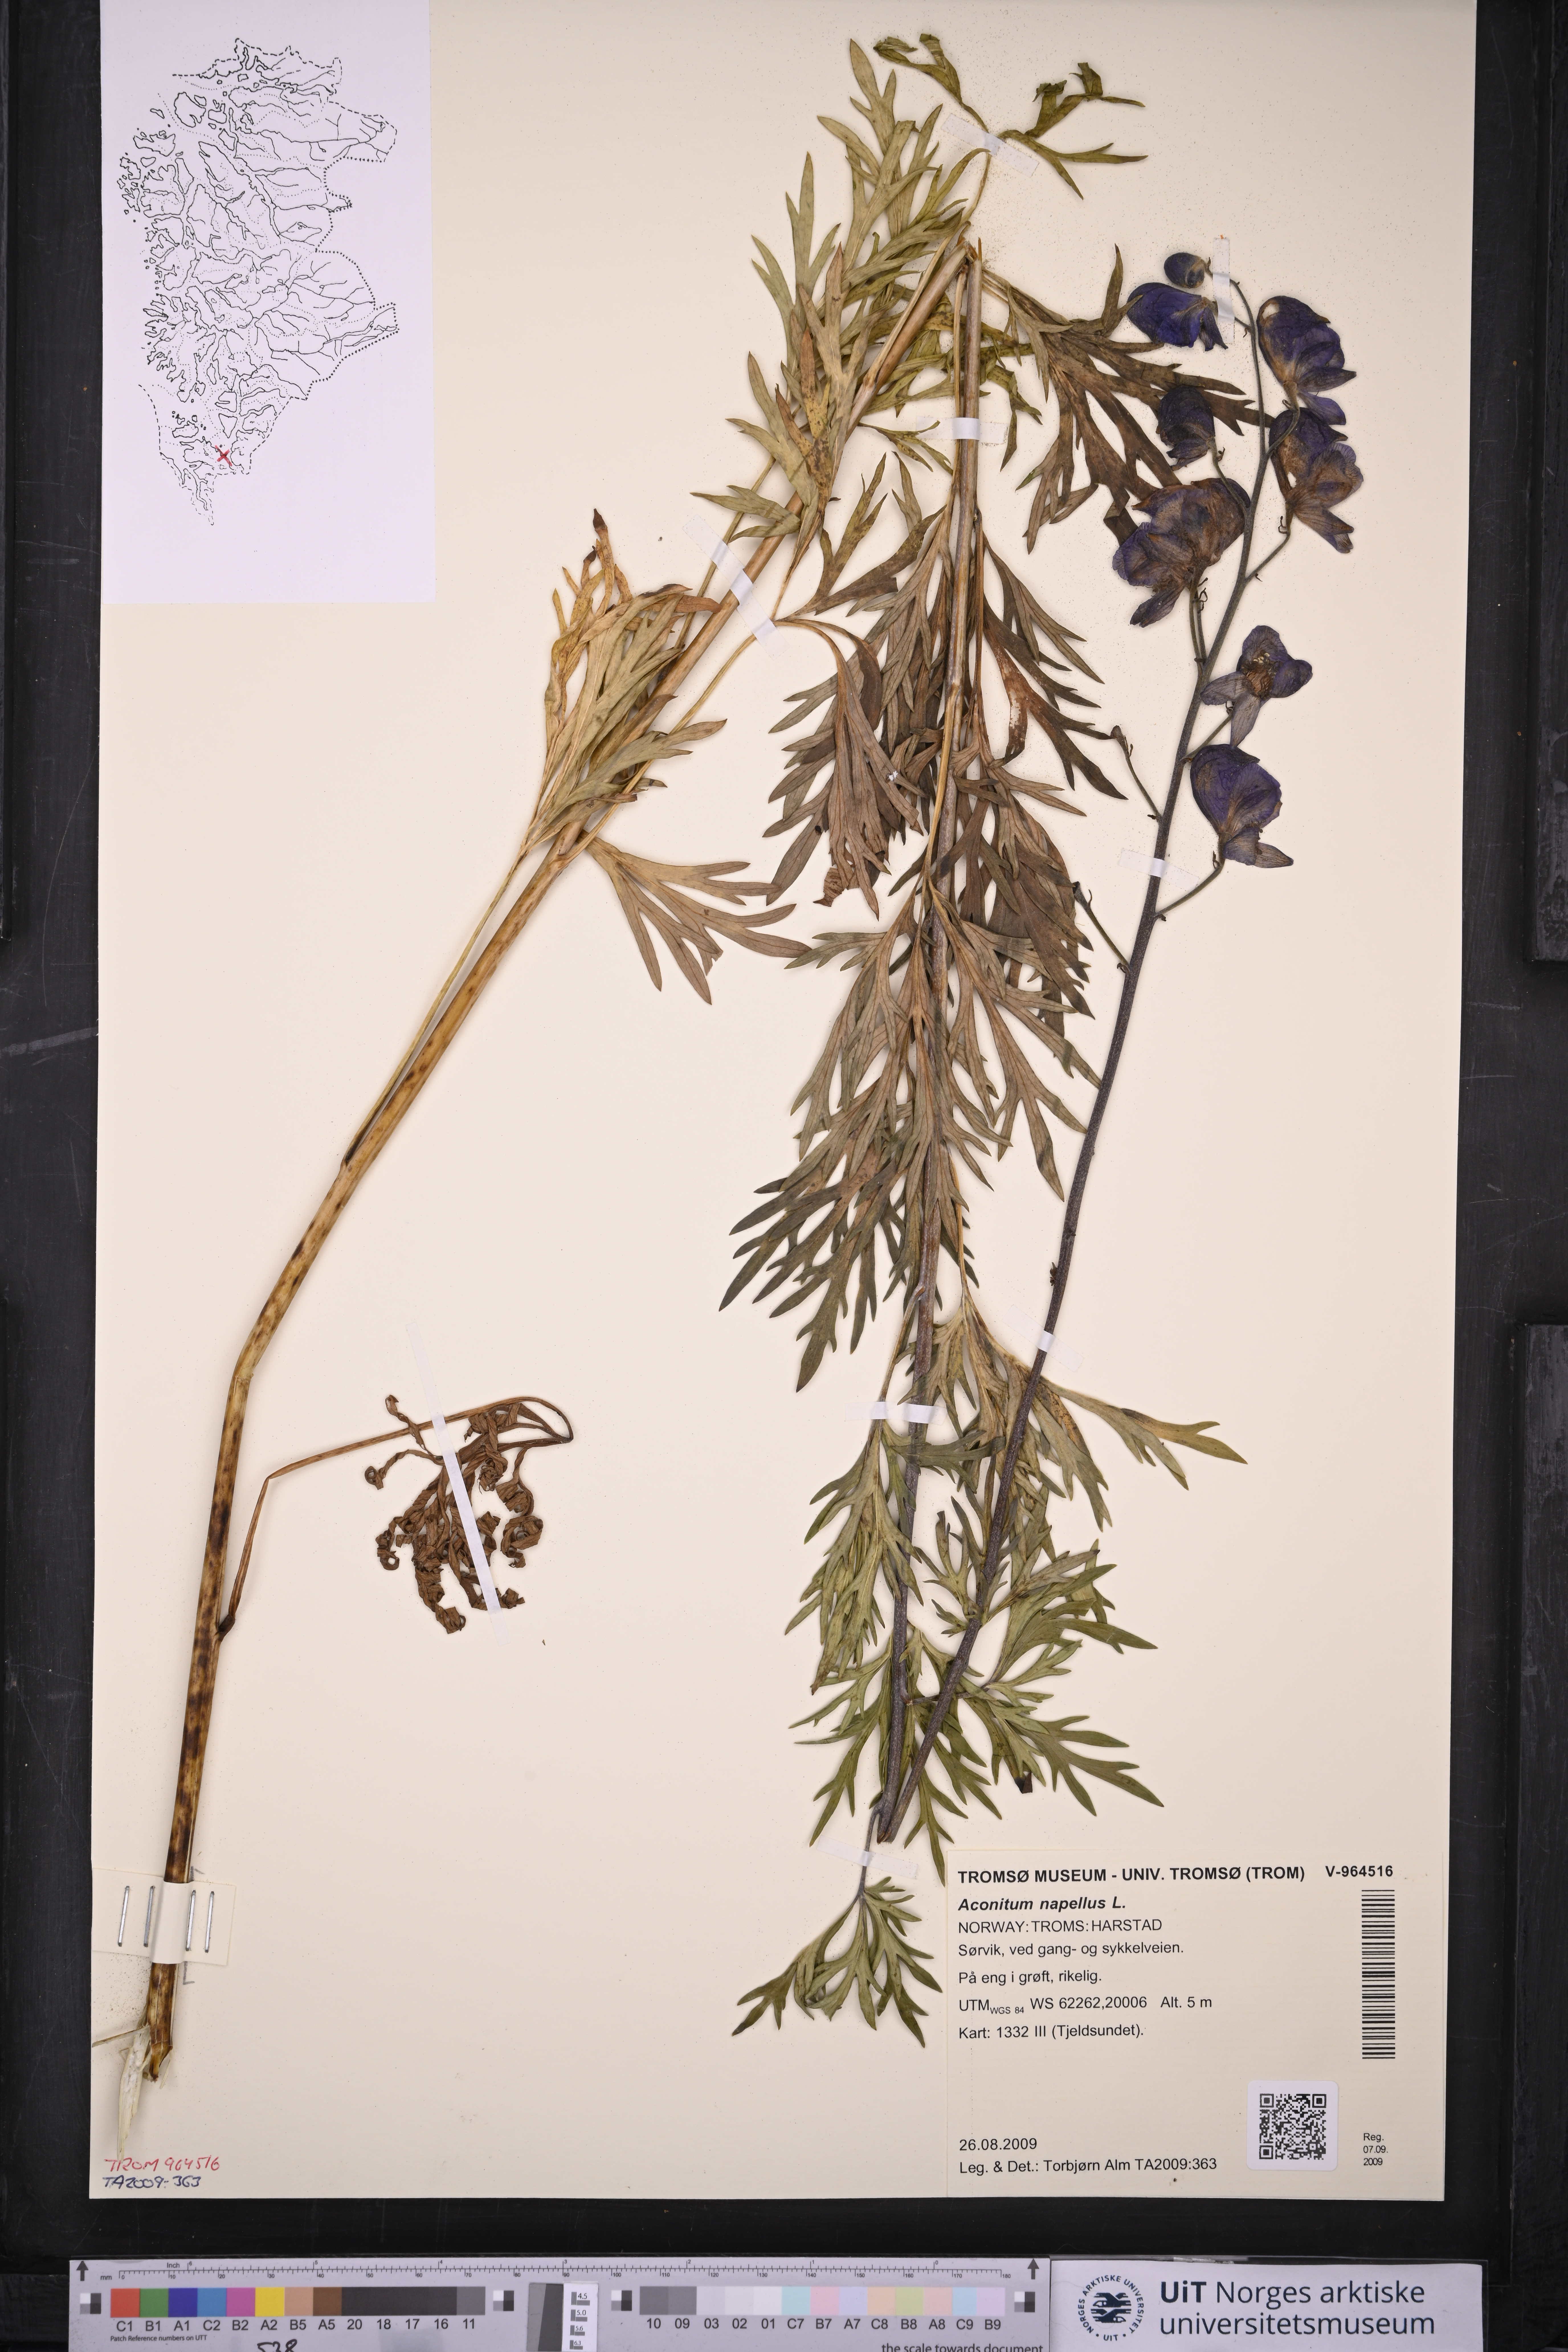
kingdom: Plantae
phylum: Tracheophyta
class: Magnoliopsida
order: Ranunculales
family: Ranunculaceae
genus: Aconitum
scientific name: Aconitum napellus
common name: Garden monkshood
